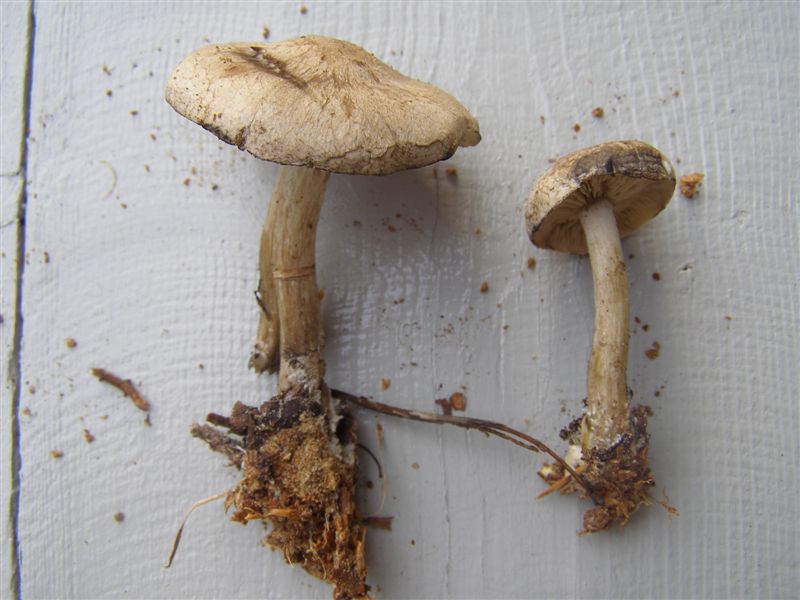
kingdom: Fungi
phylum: Basidiomycota
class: Agaricomycetes
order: Agaricales
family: Lyophyllaceae
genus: Calocybe
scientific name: Calocybe gangraenosa
